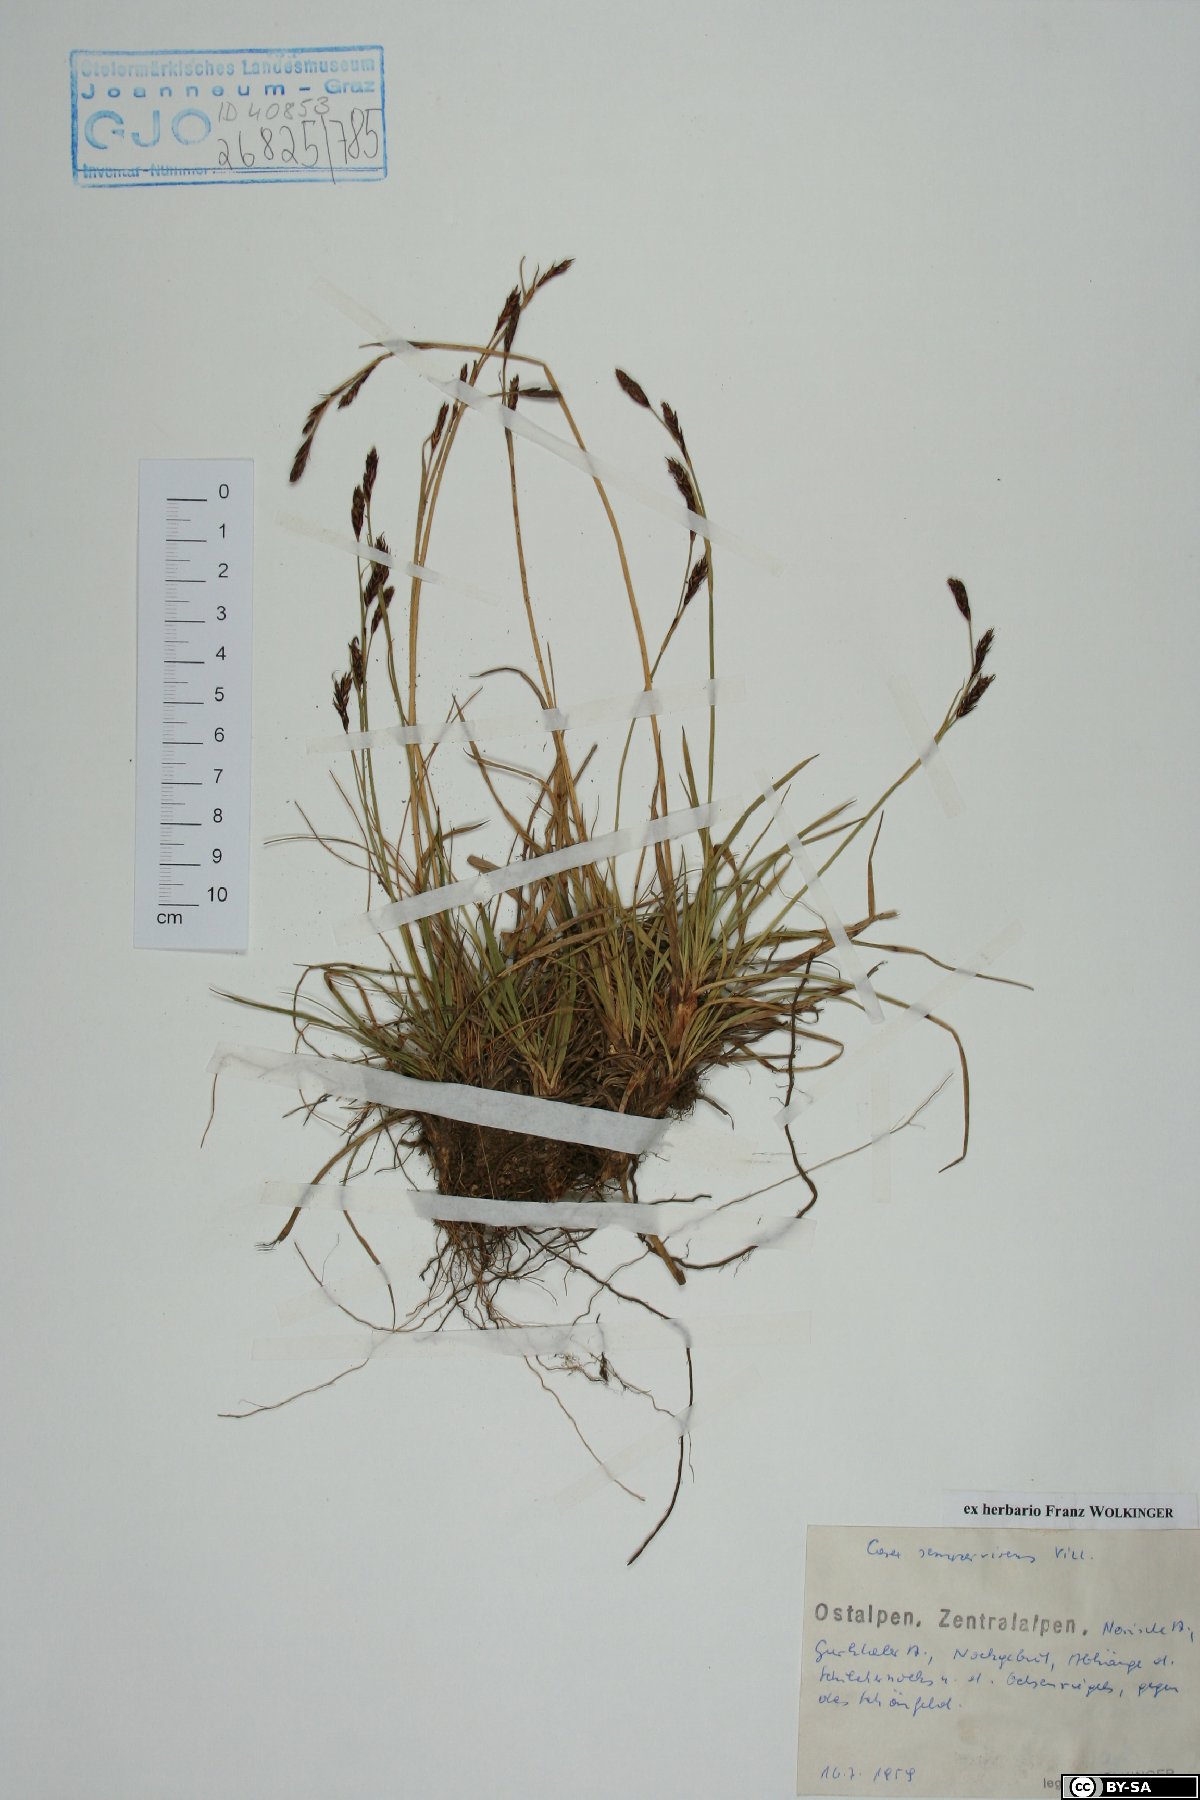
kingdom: Plantae
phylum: Tracheophyta
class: Liliopsida
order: Poales
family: Cyperaceae
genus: Carex
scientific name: Carex sempervirens
